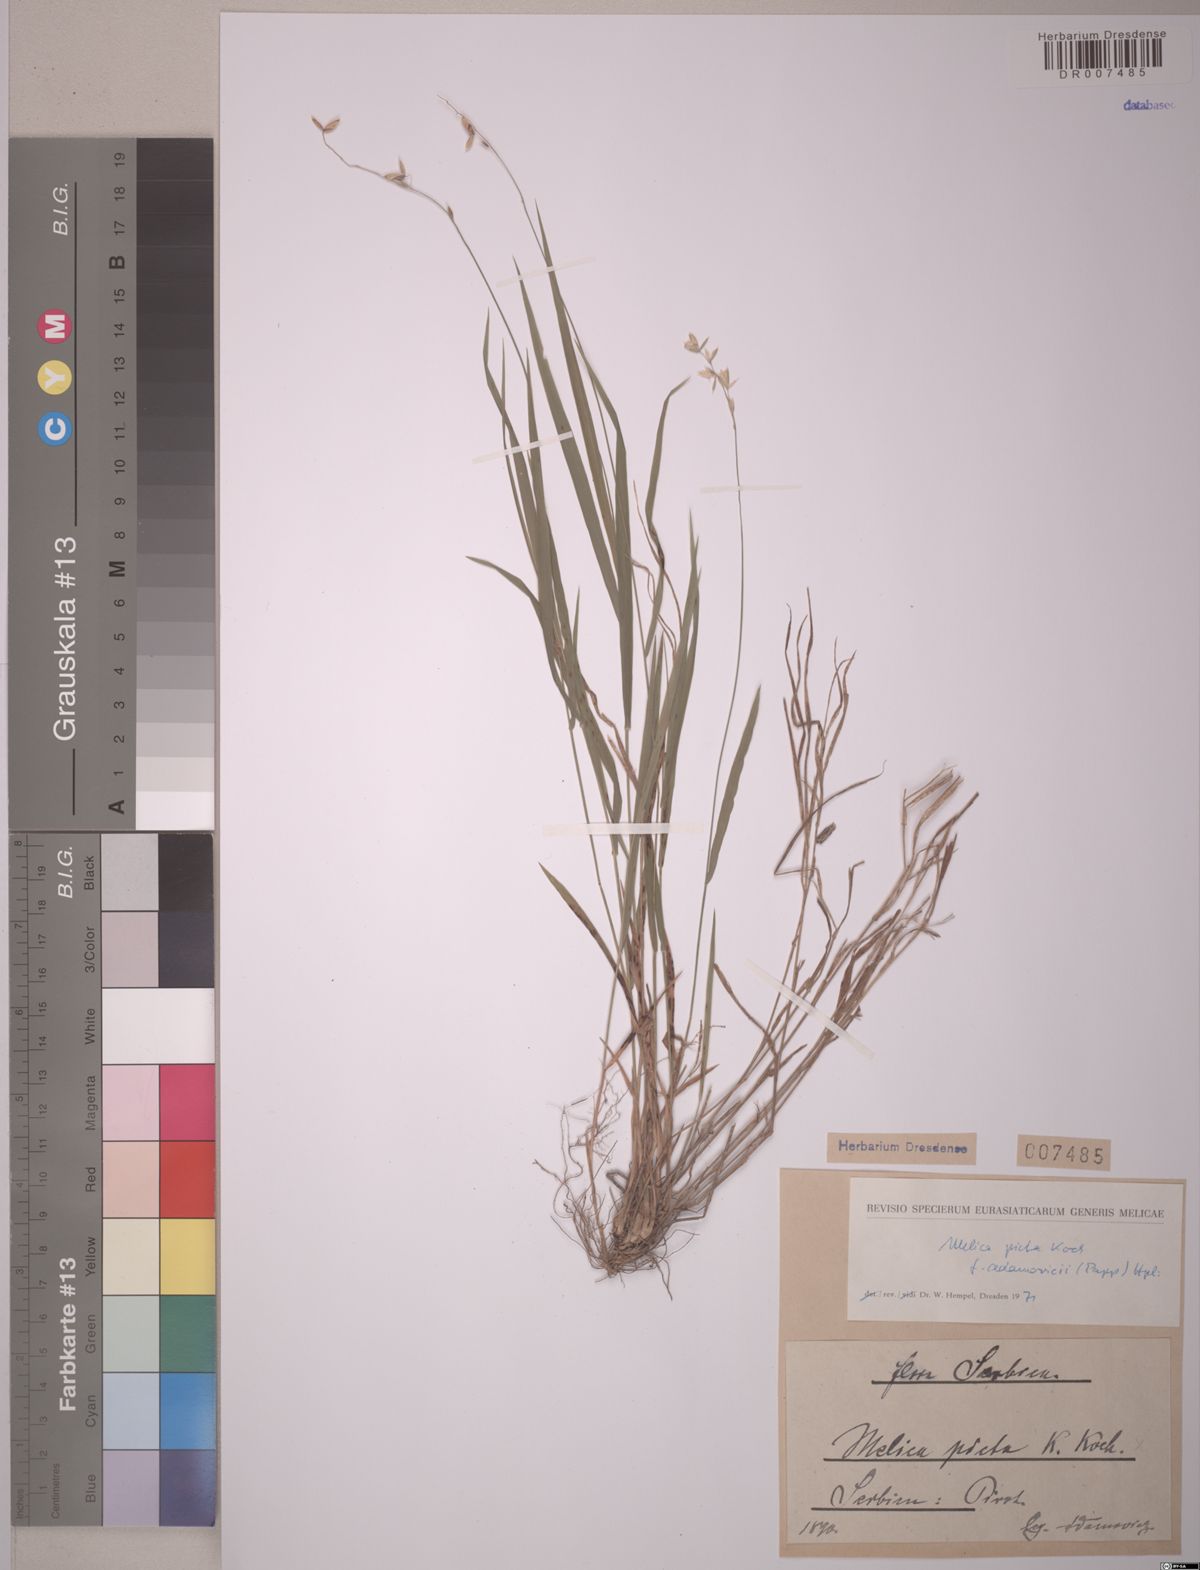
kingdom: Plantae
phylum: Tracheophyta
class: Liliopsida
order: Poales
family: Poaceae
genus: Melica
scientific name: Melica picta
